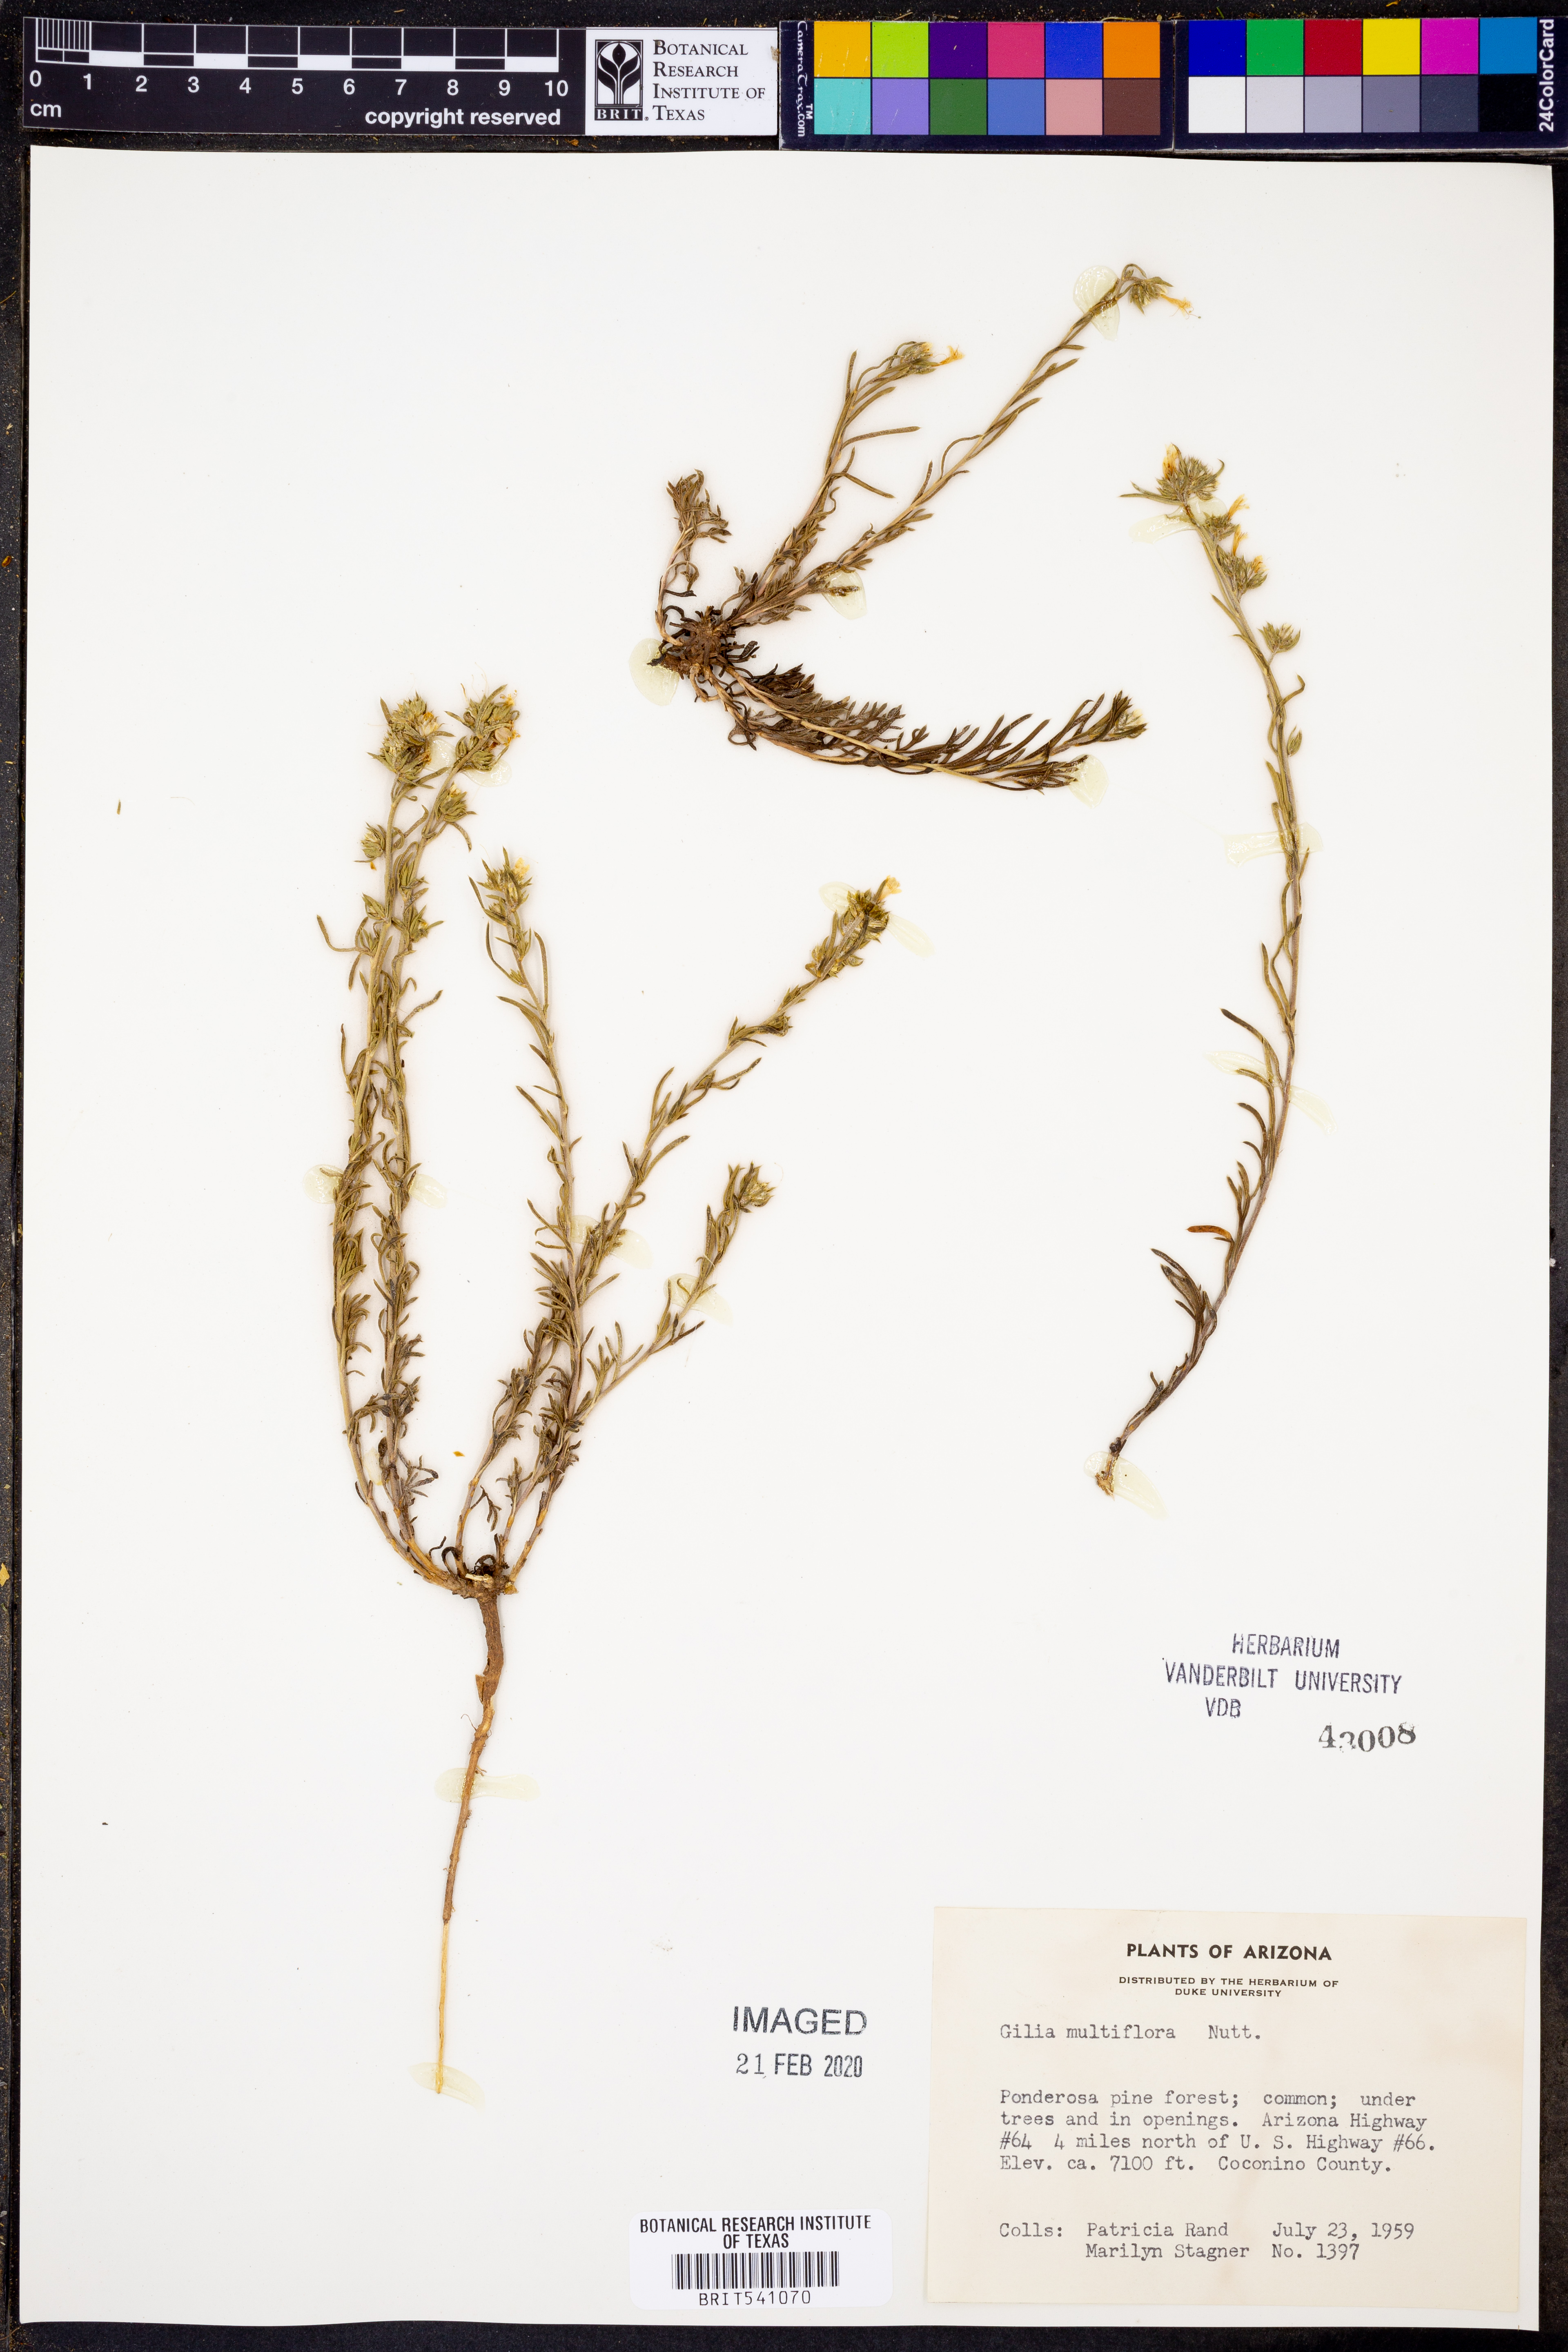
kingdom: Plantae
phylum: Tracheophyta
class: Magnoliopsida
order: Ericales
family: Polemoniaceae
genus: Ipomopsis
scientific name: Ipomopsis multiflora
